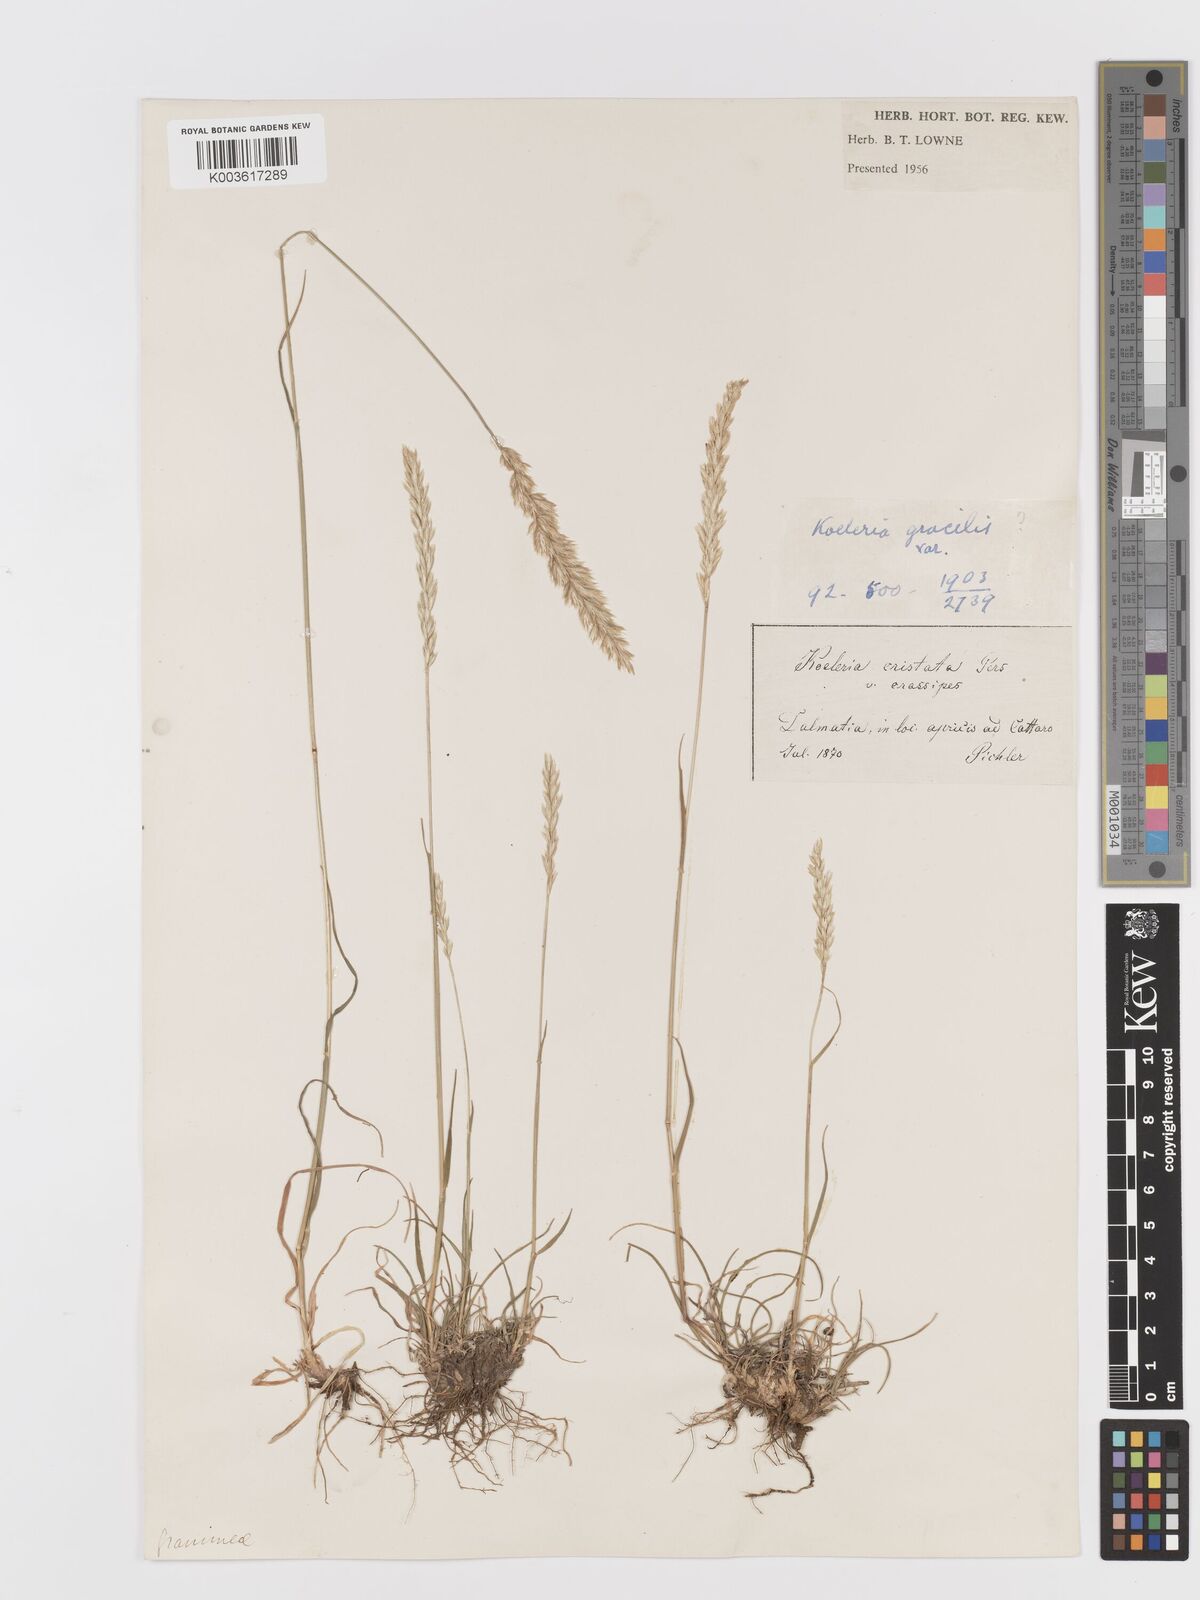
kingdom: Plantae
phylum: Tracheophyta
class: Liliopsida
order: Poales
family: Poaceae
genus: Koeleria
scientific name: Koeleria macrantha
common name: Crested hair-grass
